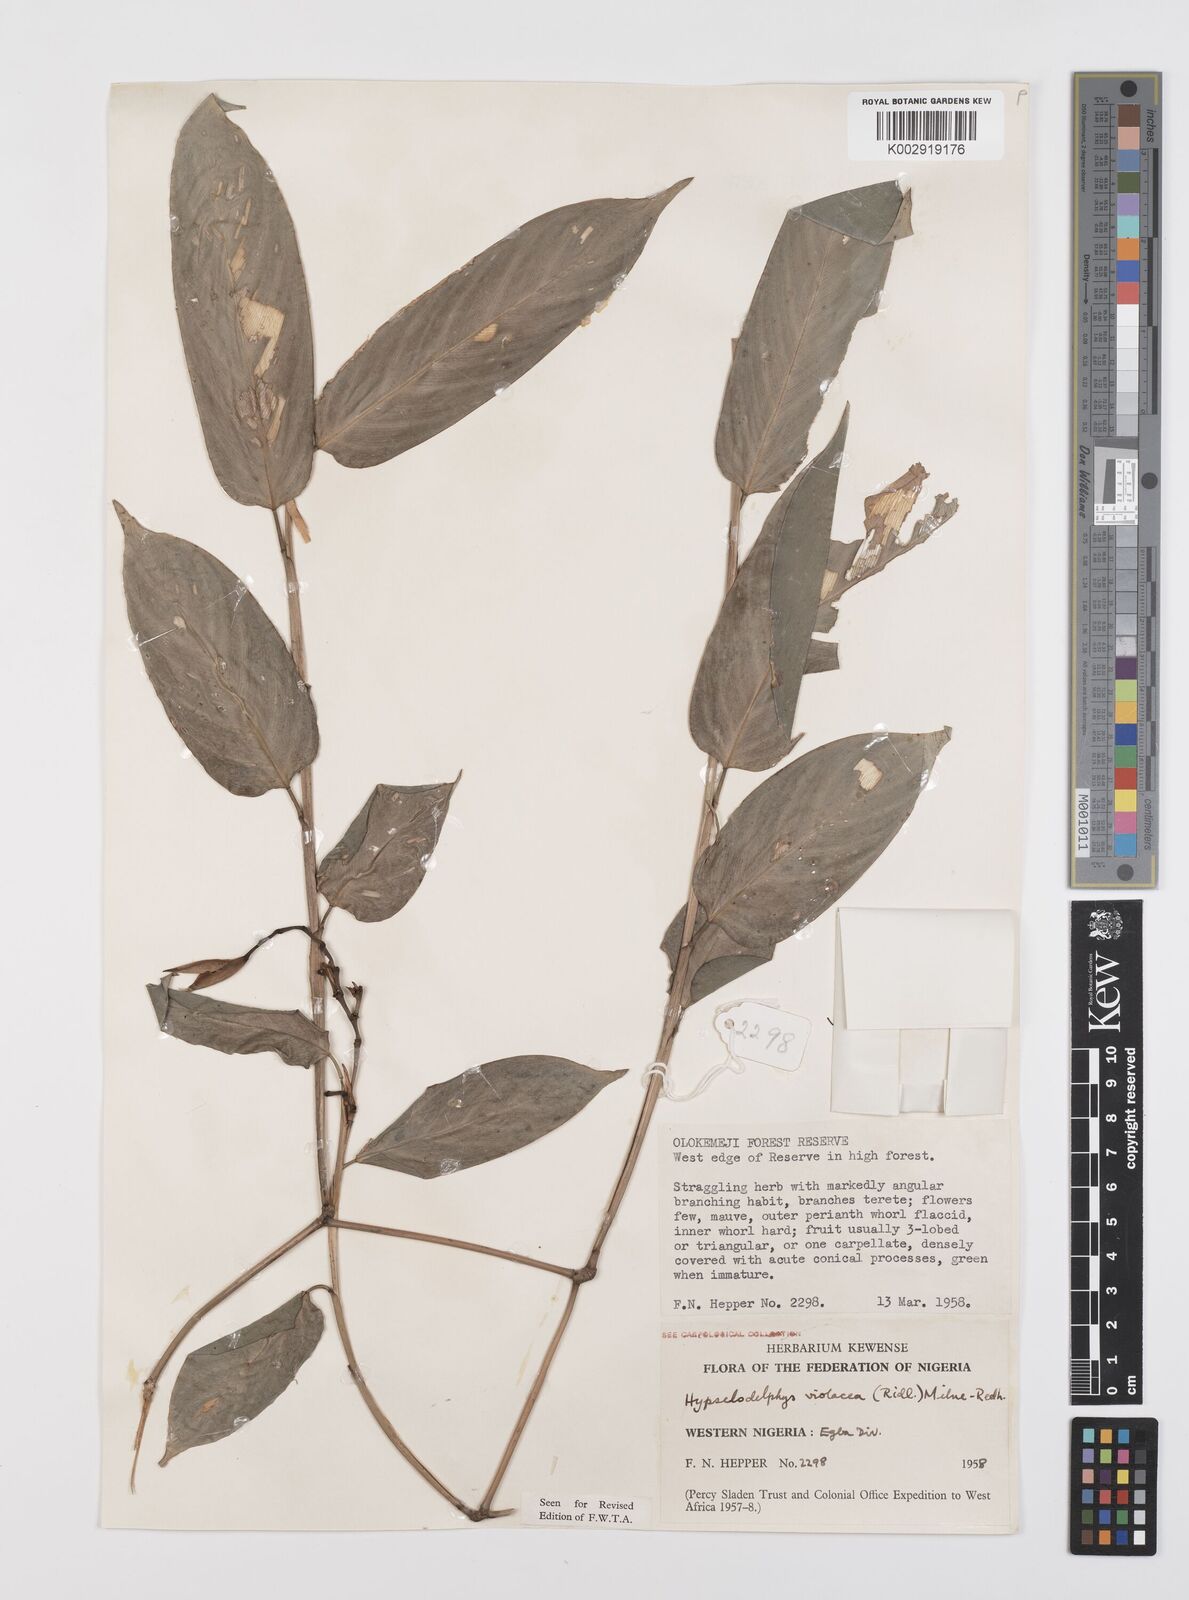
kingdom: Plantae
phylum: Tracheophyta
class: Liliopsida
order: Zingiberales
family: Marantaceae
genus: Hypselodelphys
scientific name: Hypselodelphys violacea
